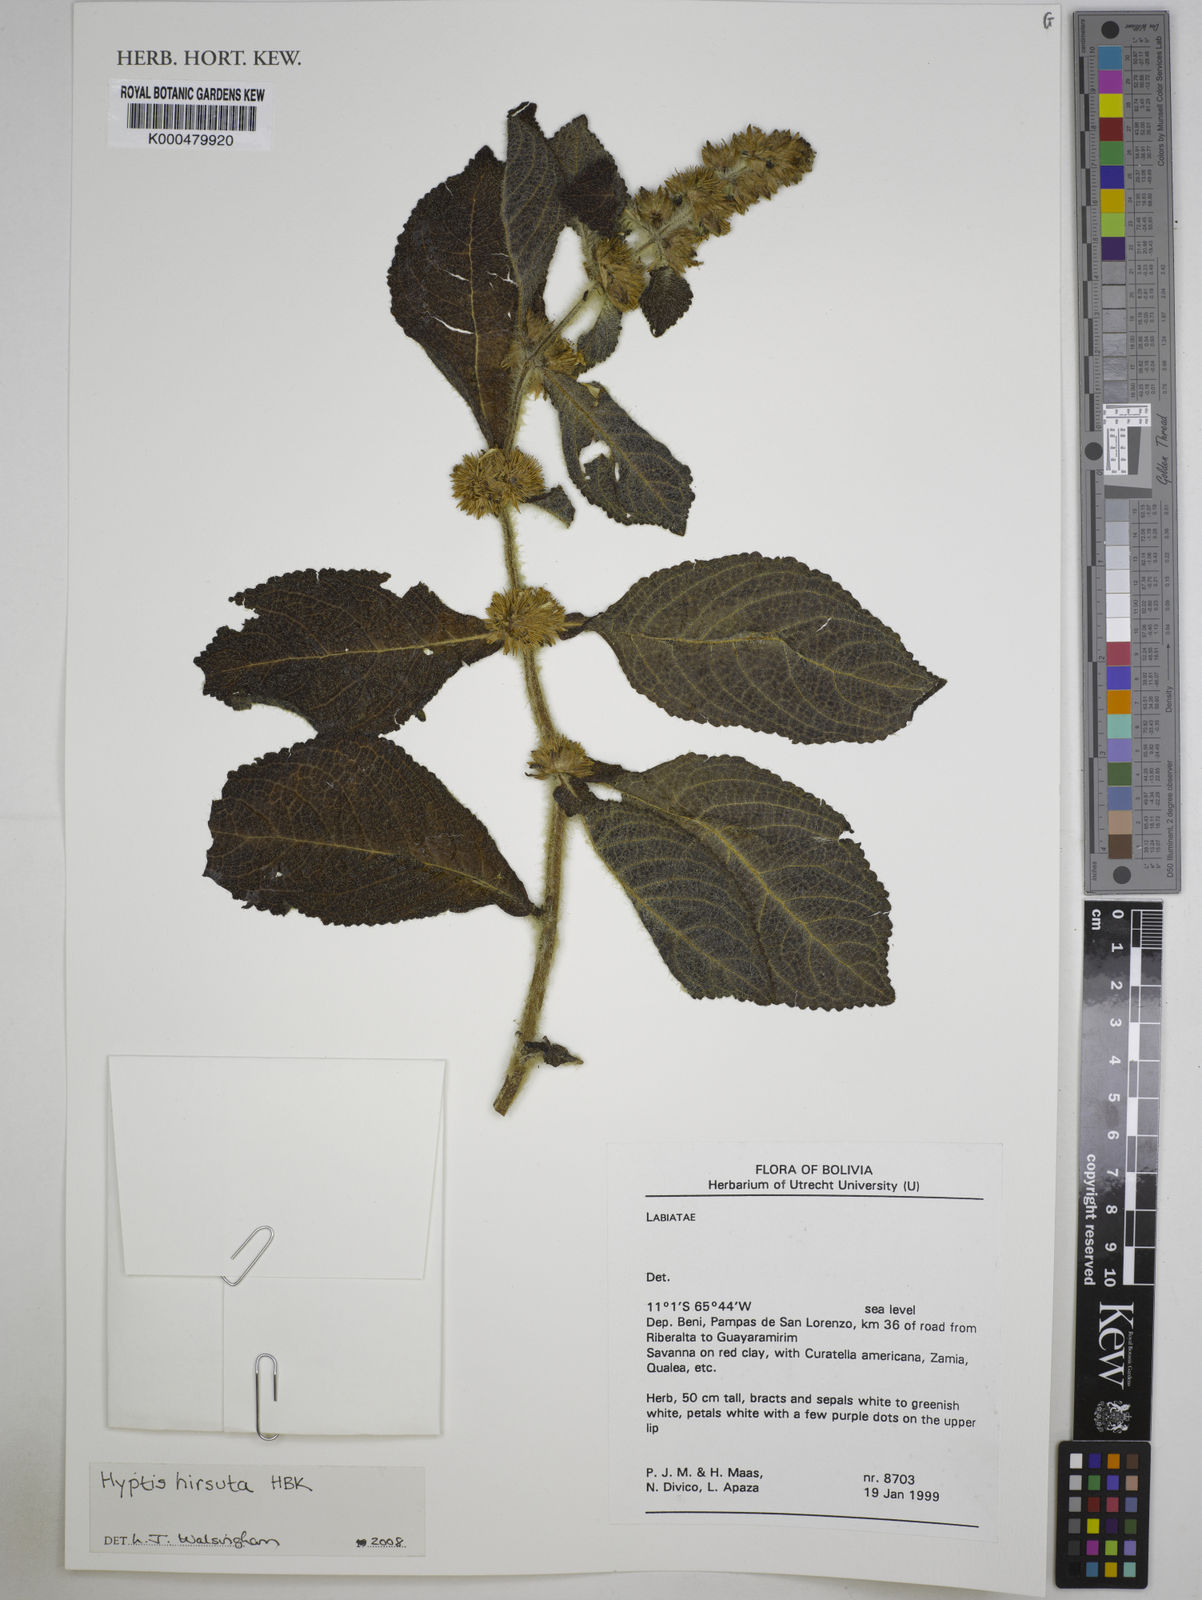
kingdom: Plantae
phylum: Tracheophyta
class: Magnoliopsida
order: Lamiales
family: Lamiaceae
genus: Hyptis
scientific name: Hyptis
